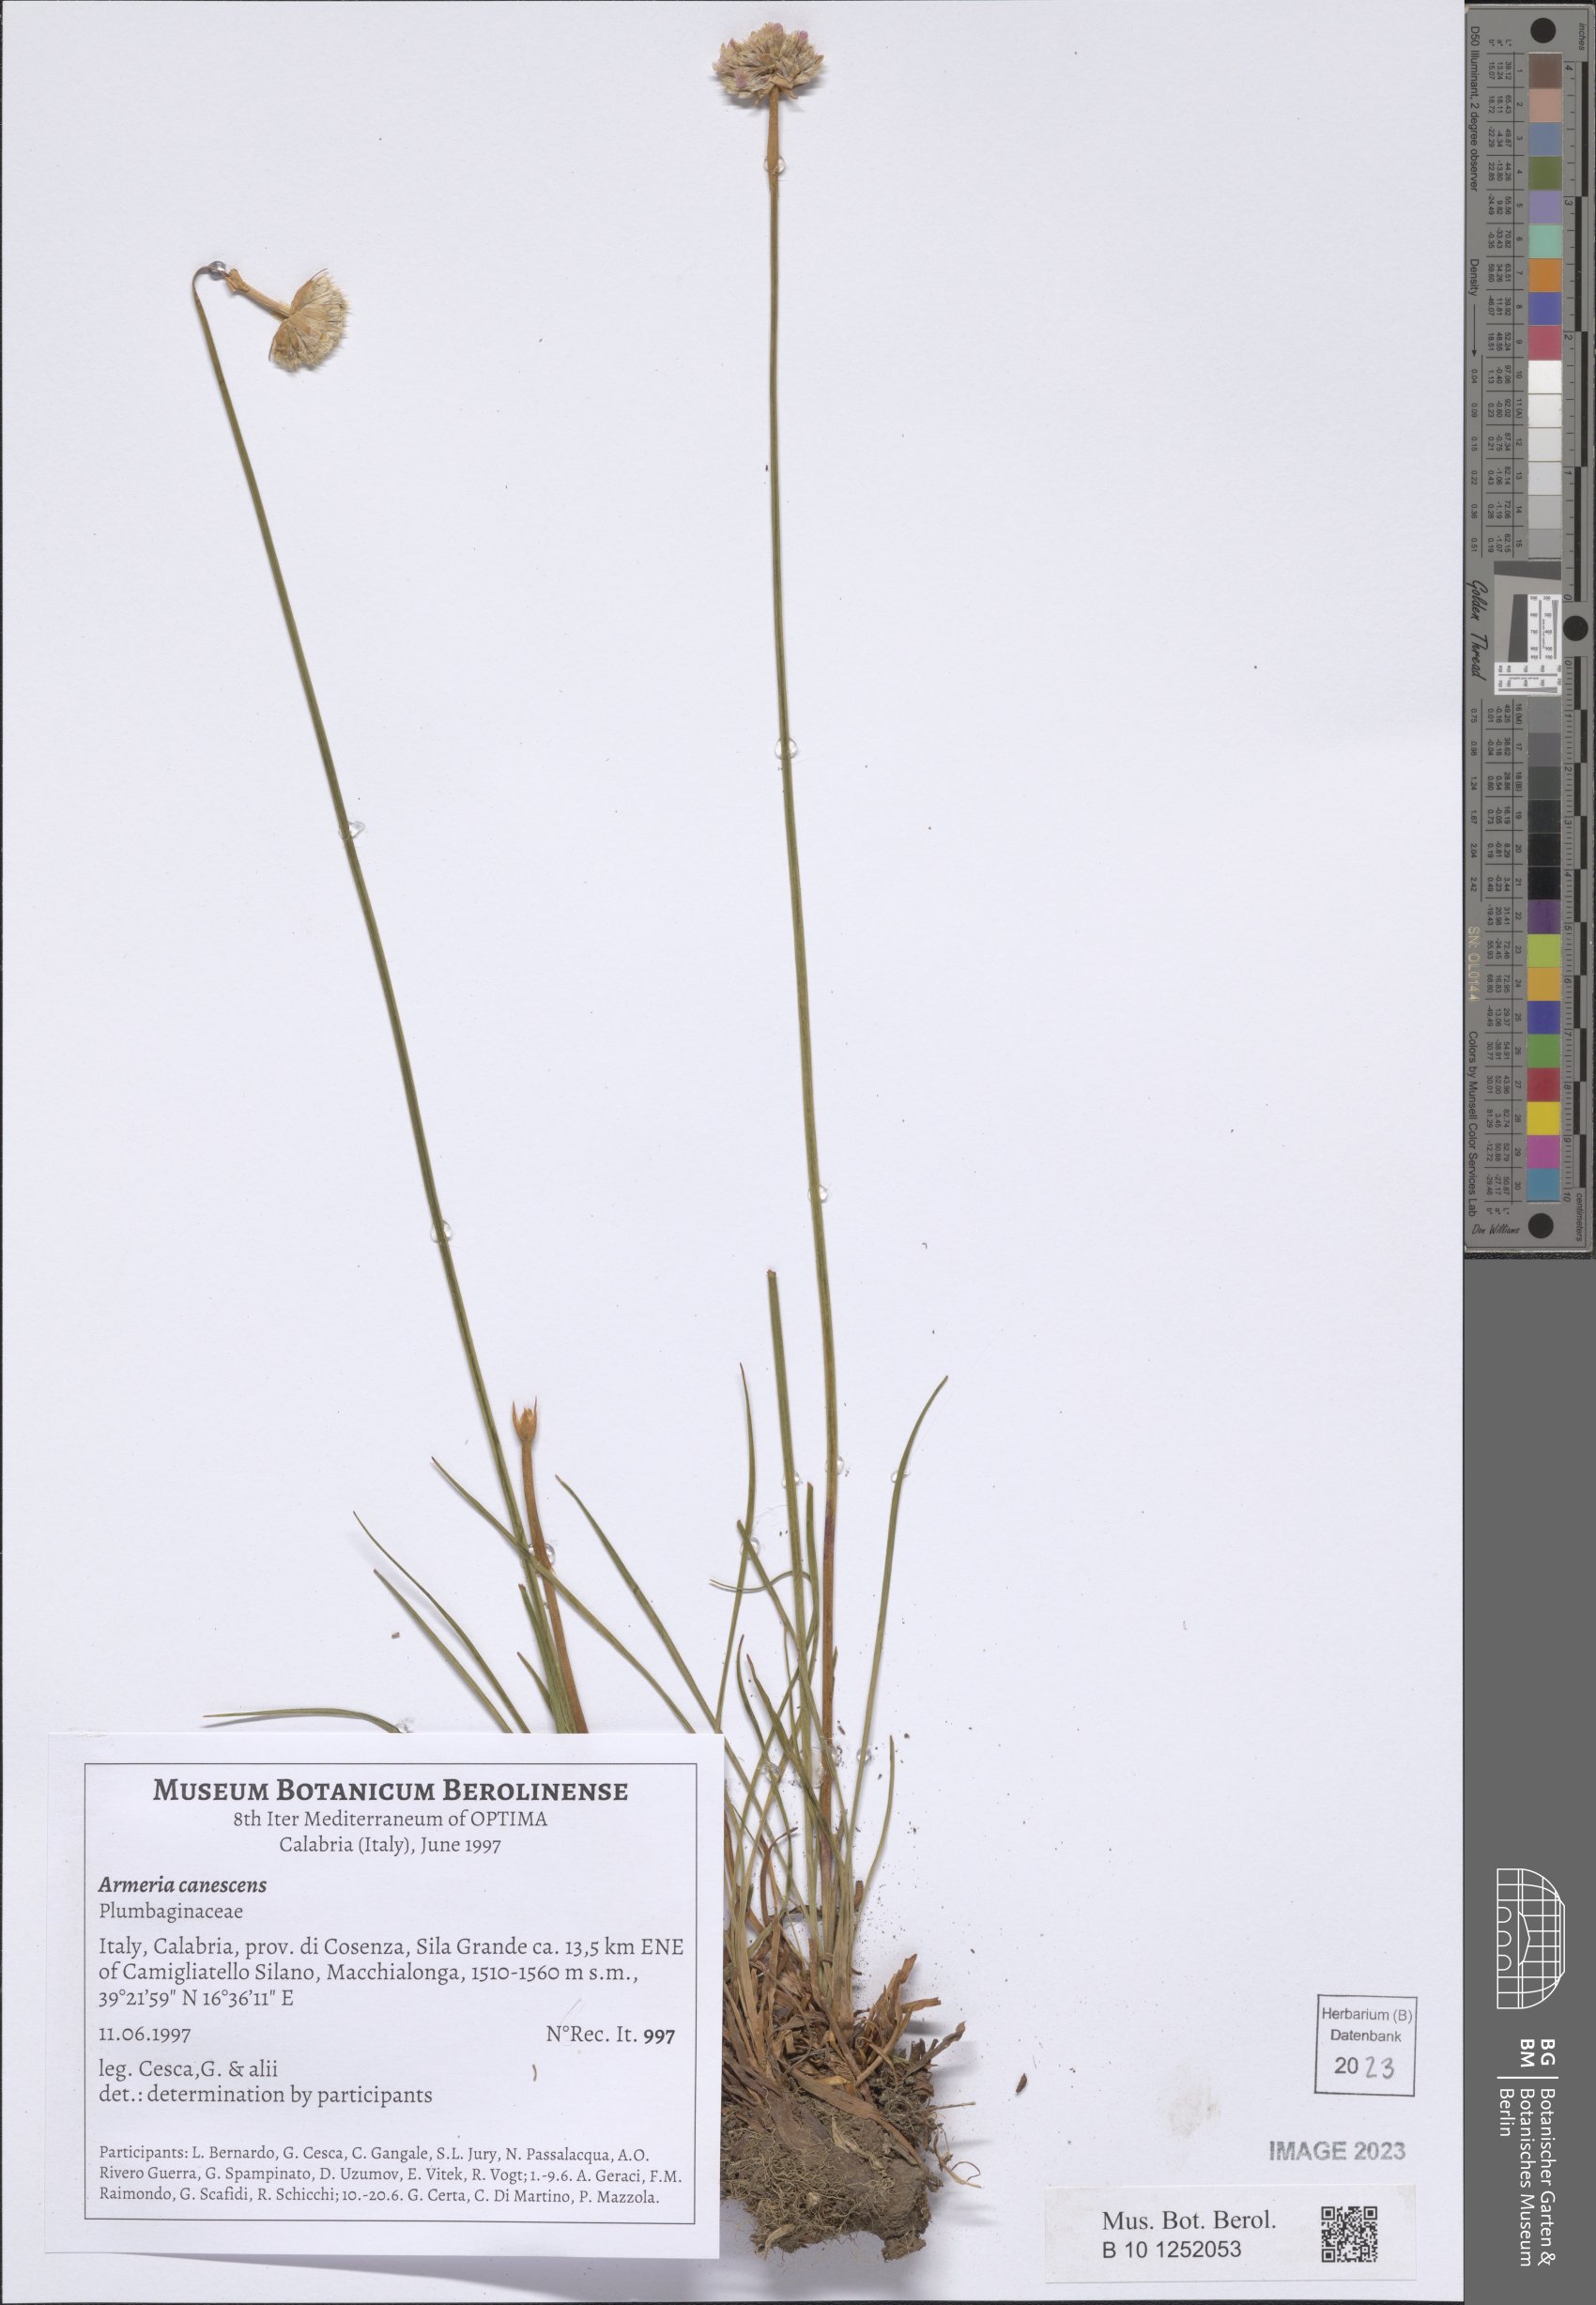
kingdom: Plantae
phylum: Tracheophyta
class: Magnoliopsida
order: Caryophyllales
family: Plumbaginaceae
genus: Armeria
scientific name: Armeria canescens
